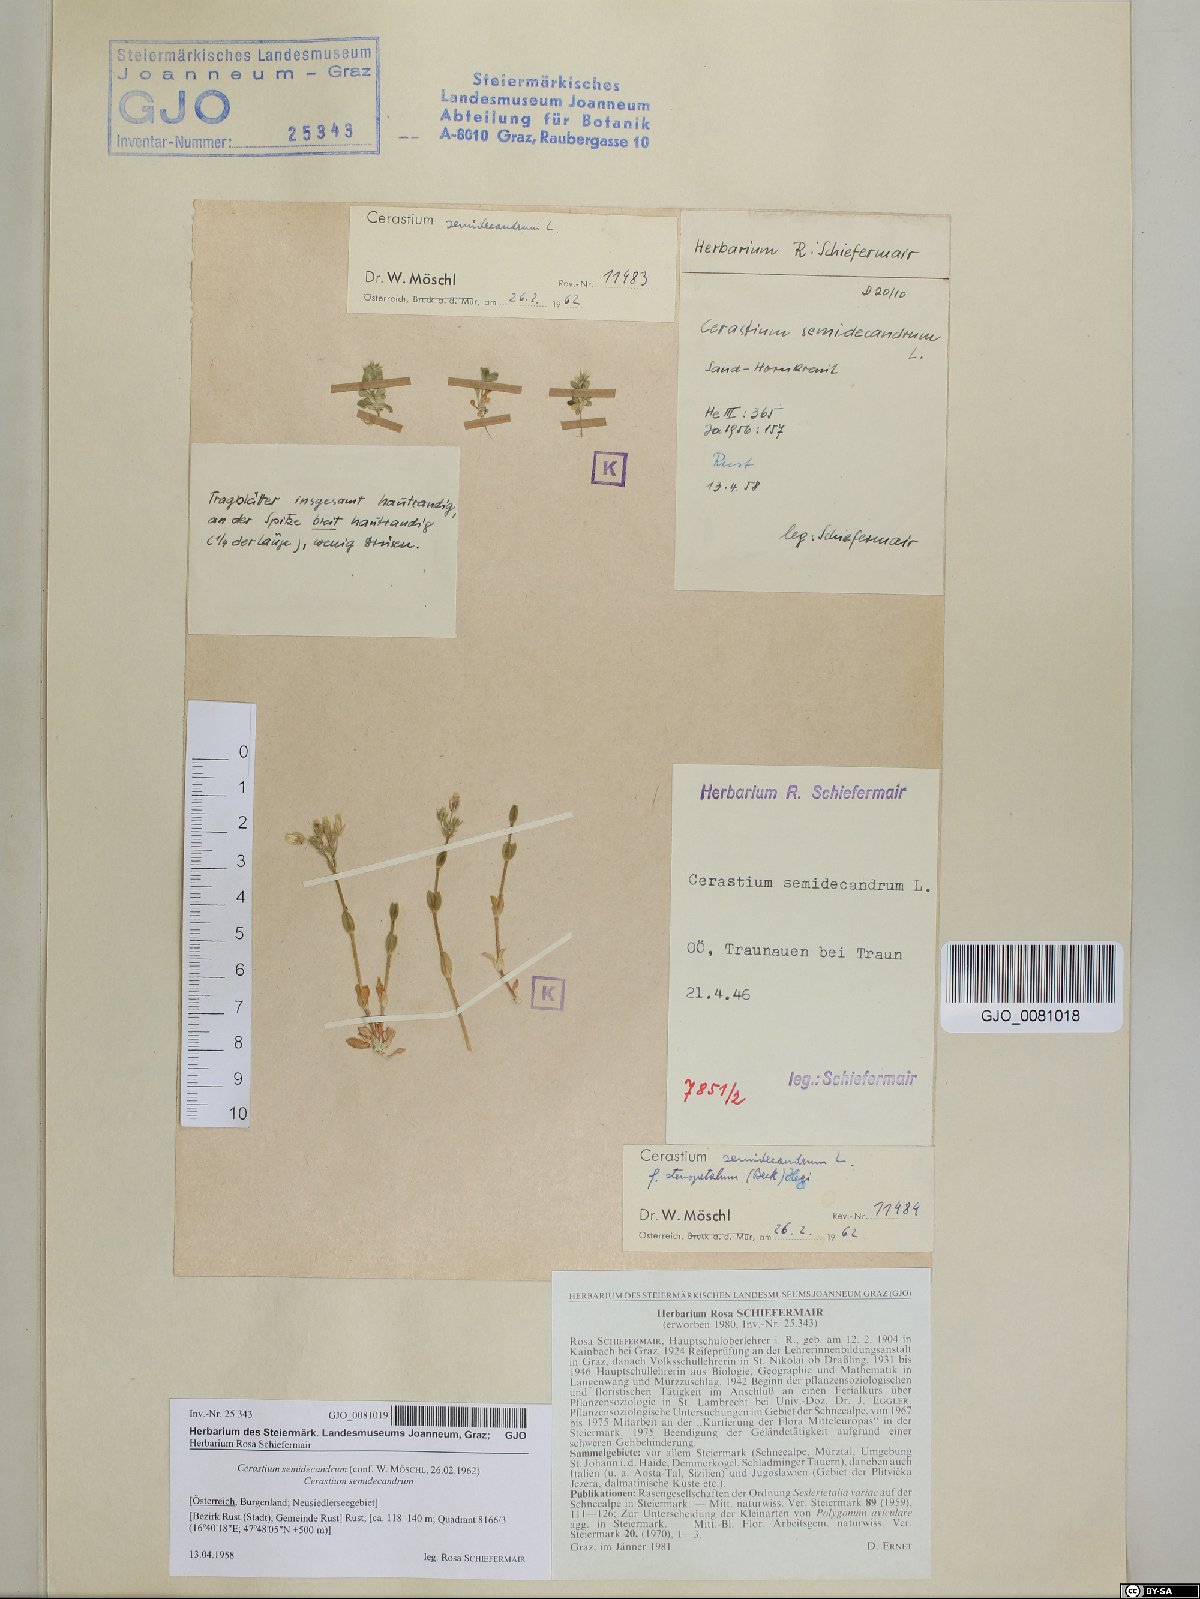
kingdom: Plantae
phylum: Tracheophyta
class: Magnoliopsida
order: Caryophyllales
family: Caryophyllaceae
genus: Cerastium
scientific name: Cerastium semidecandrum
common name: Little mouse-ear
